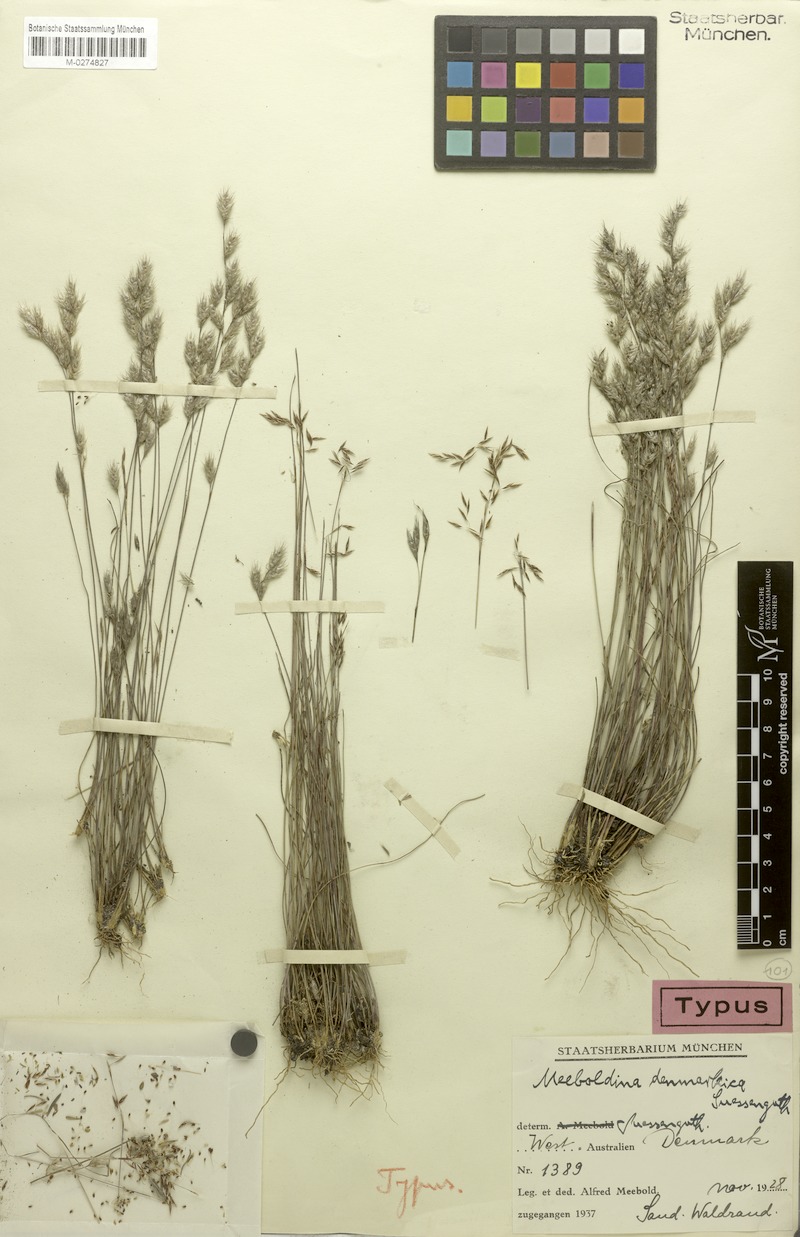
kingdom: Plantae
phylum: Tracheophyta
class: Liliopsida
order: Poales
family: Restionaceae
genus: Leptocarpus
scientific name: Leptocarpus denmarkicus
